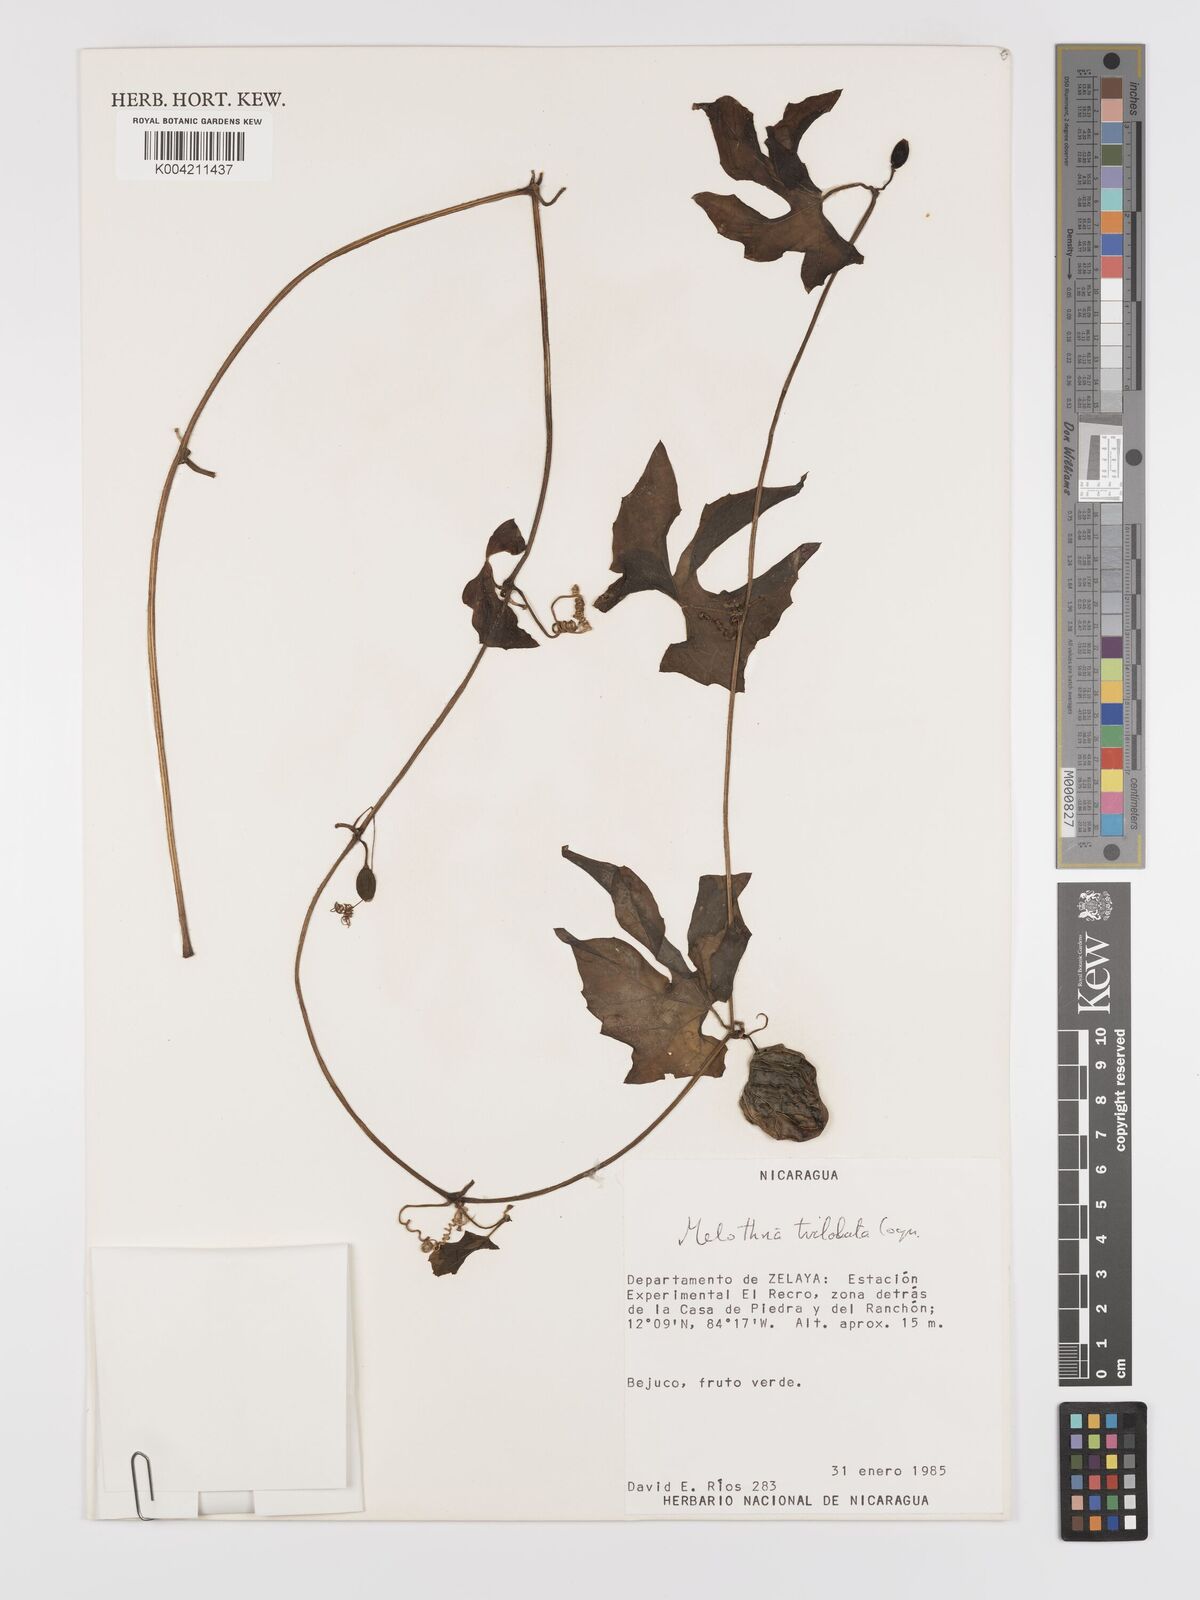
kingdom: Plantae
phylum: Tracheophyta
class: Magnoliopsida
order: Cucurbitales
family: Cucurbitaceae
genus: Melothria
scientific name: Melothria trilobata
